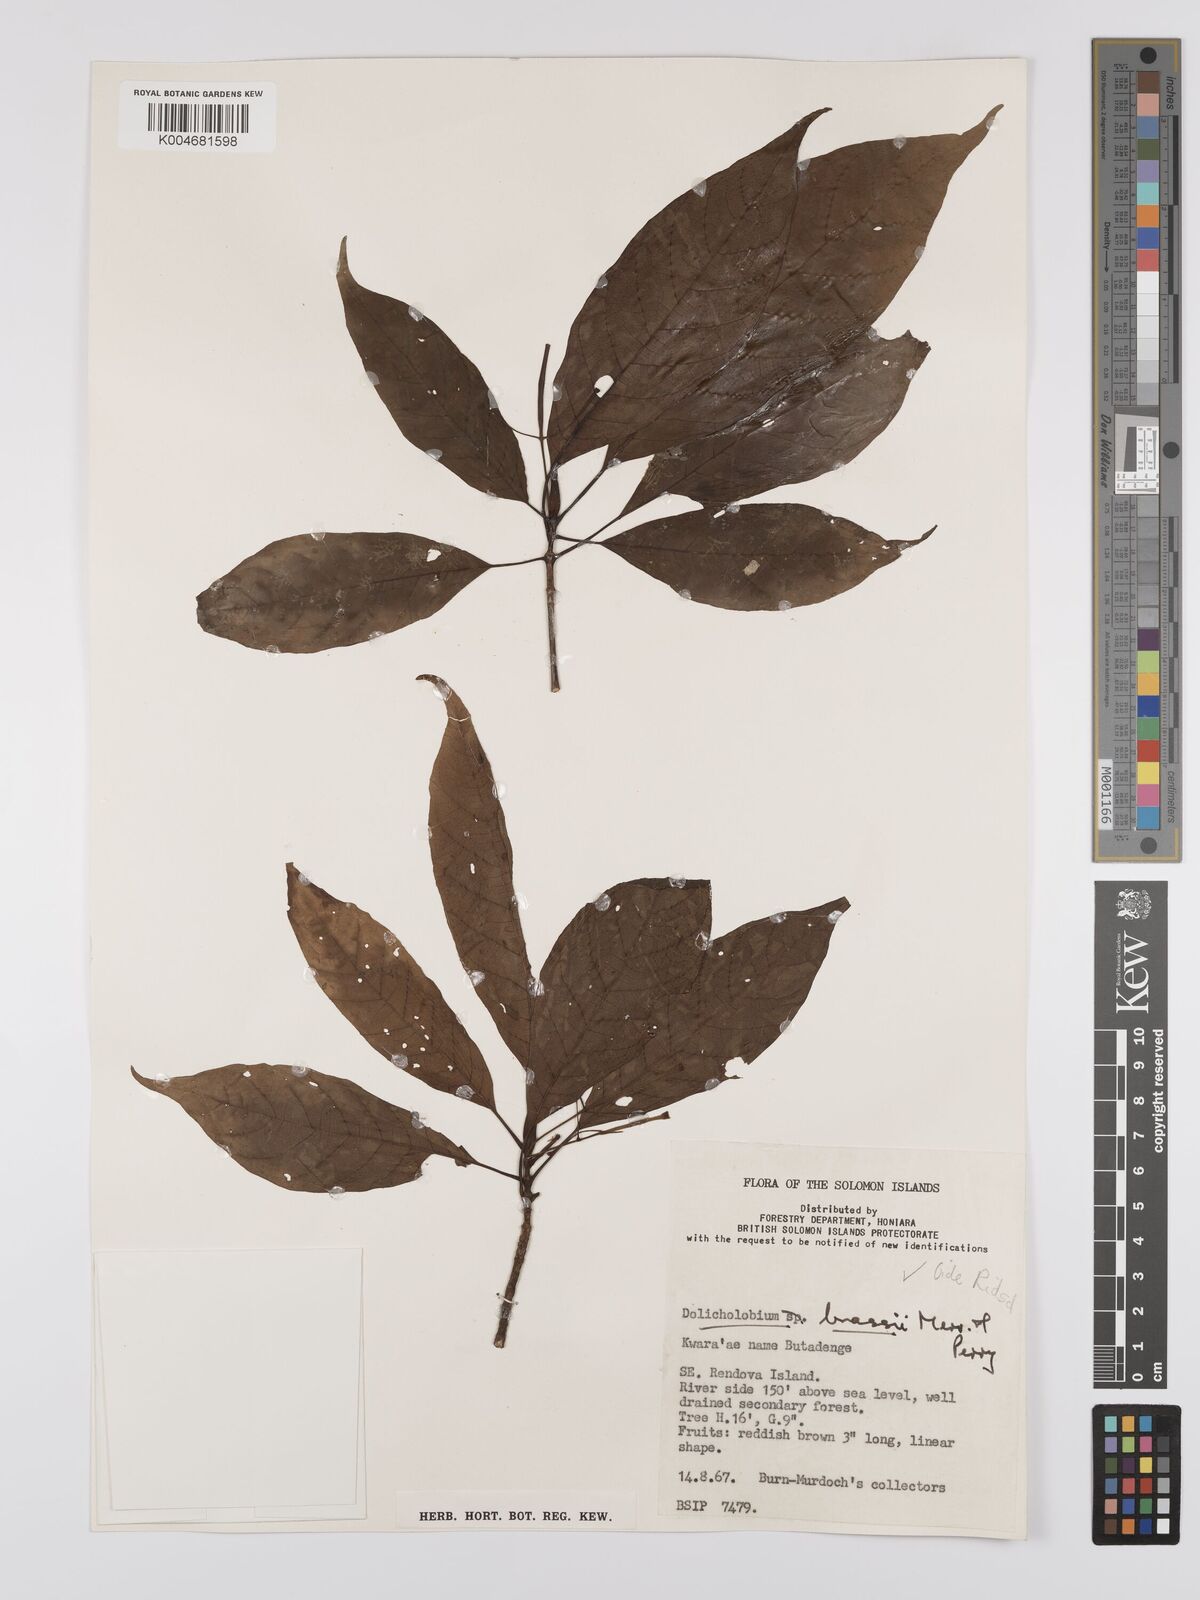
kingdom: Plantae
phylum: Tracheophyta
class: Magnoliopsida
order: Gentianales
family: Rubiaceae
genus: Dolicholobium
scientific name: Dolicholobium brassii
